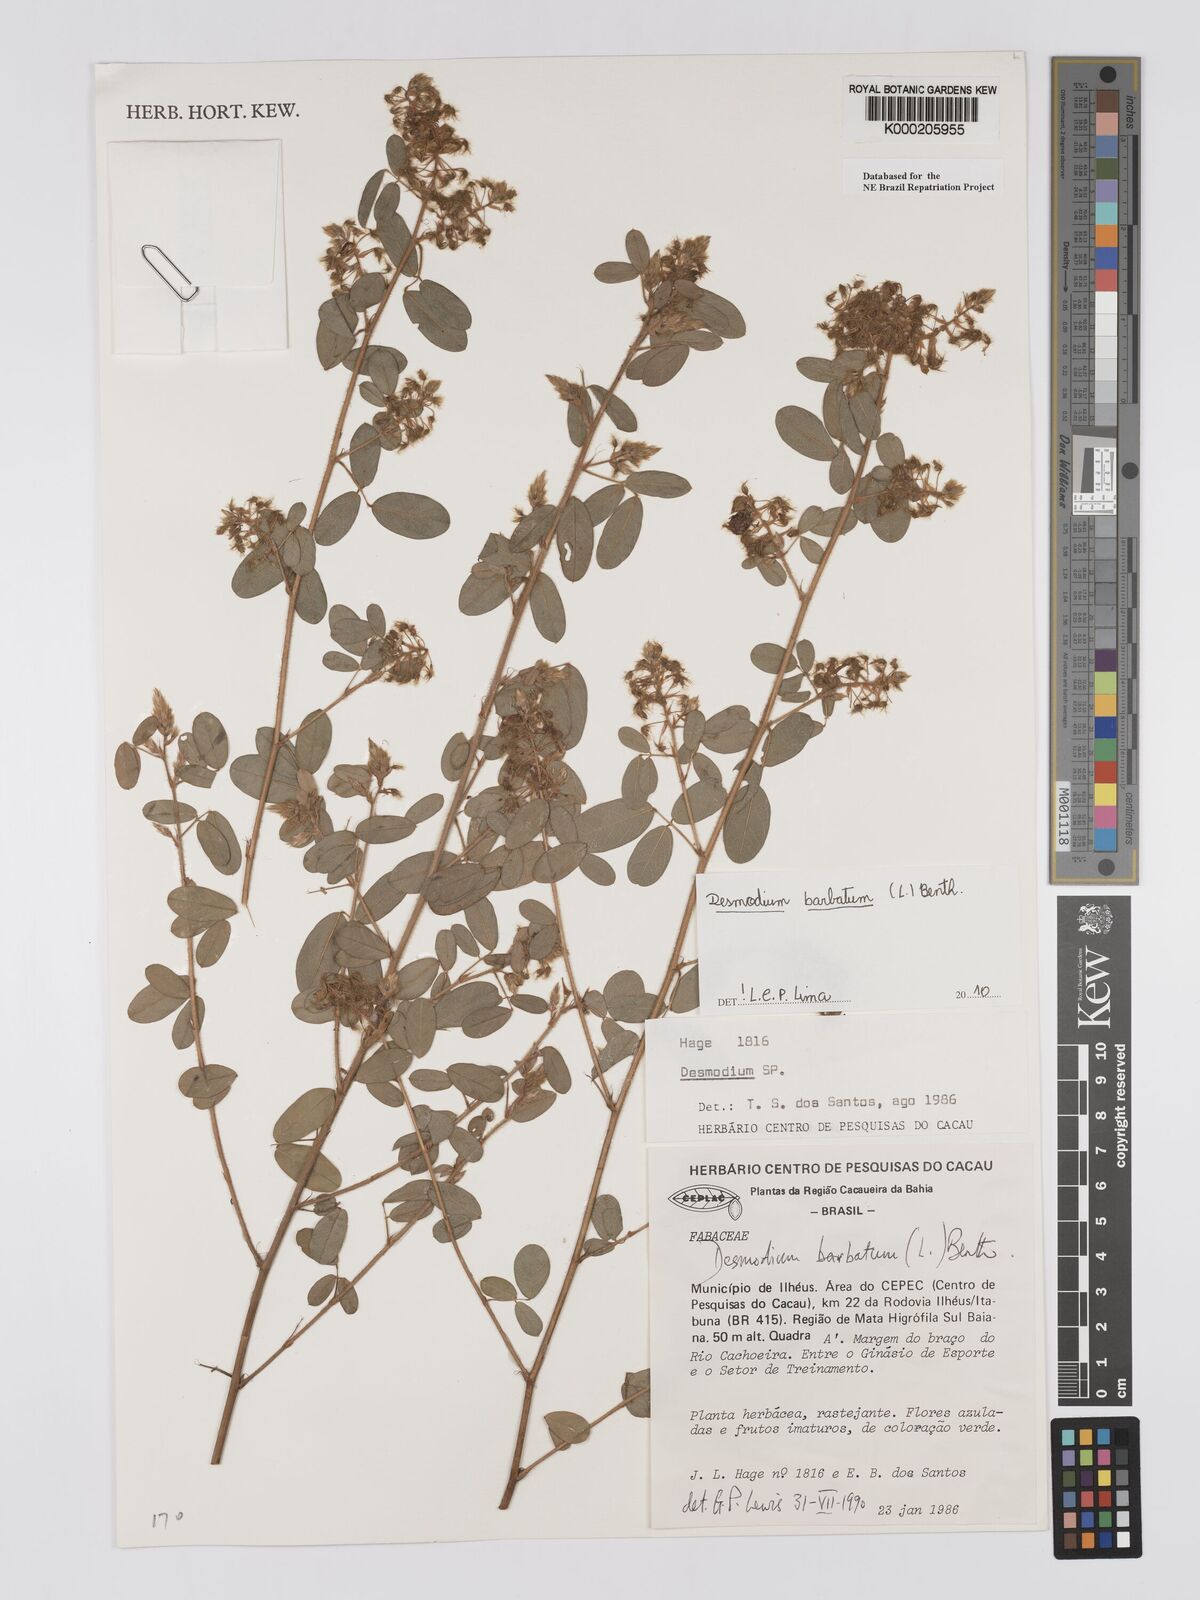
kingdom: Plantae
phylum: Tracheophyta
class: Magnoliopsida
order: Fabales
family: Fabaceae
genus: Grona
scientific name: Grona barbata
